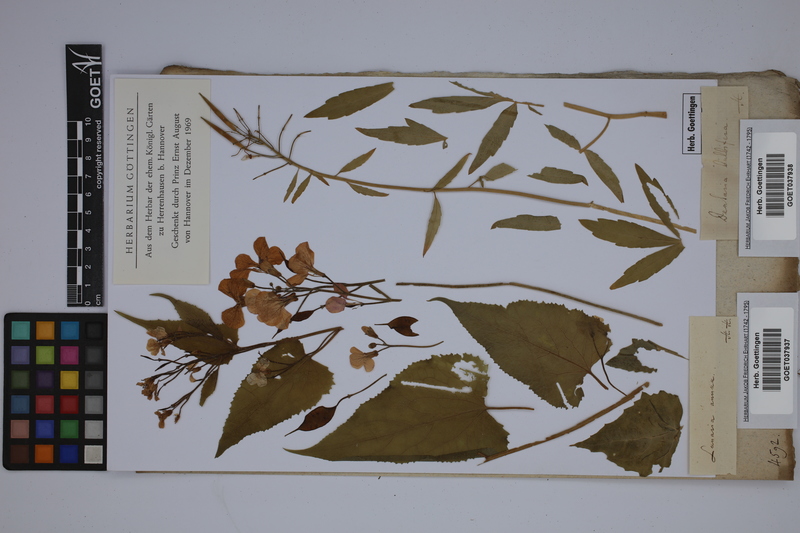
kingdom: Plantae
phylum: Tracheophyta
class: Magnoliopsida
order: Brassicales
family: Brassicaceae
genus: Lunaria
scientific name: Lunaria annua
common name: Honesty
